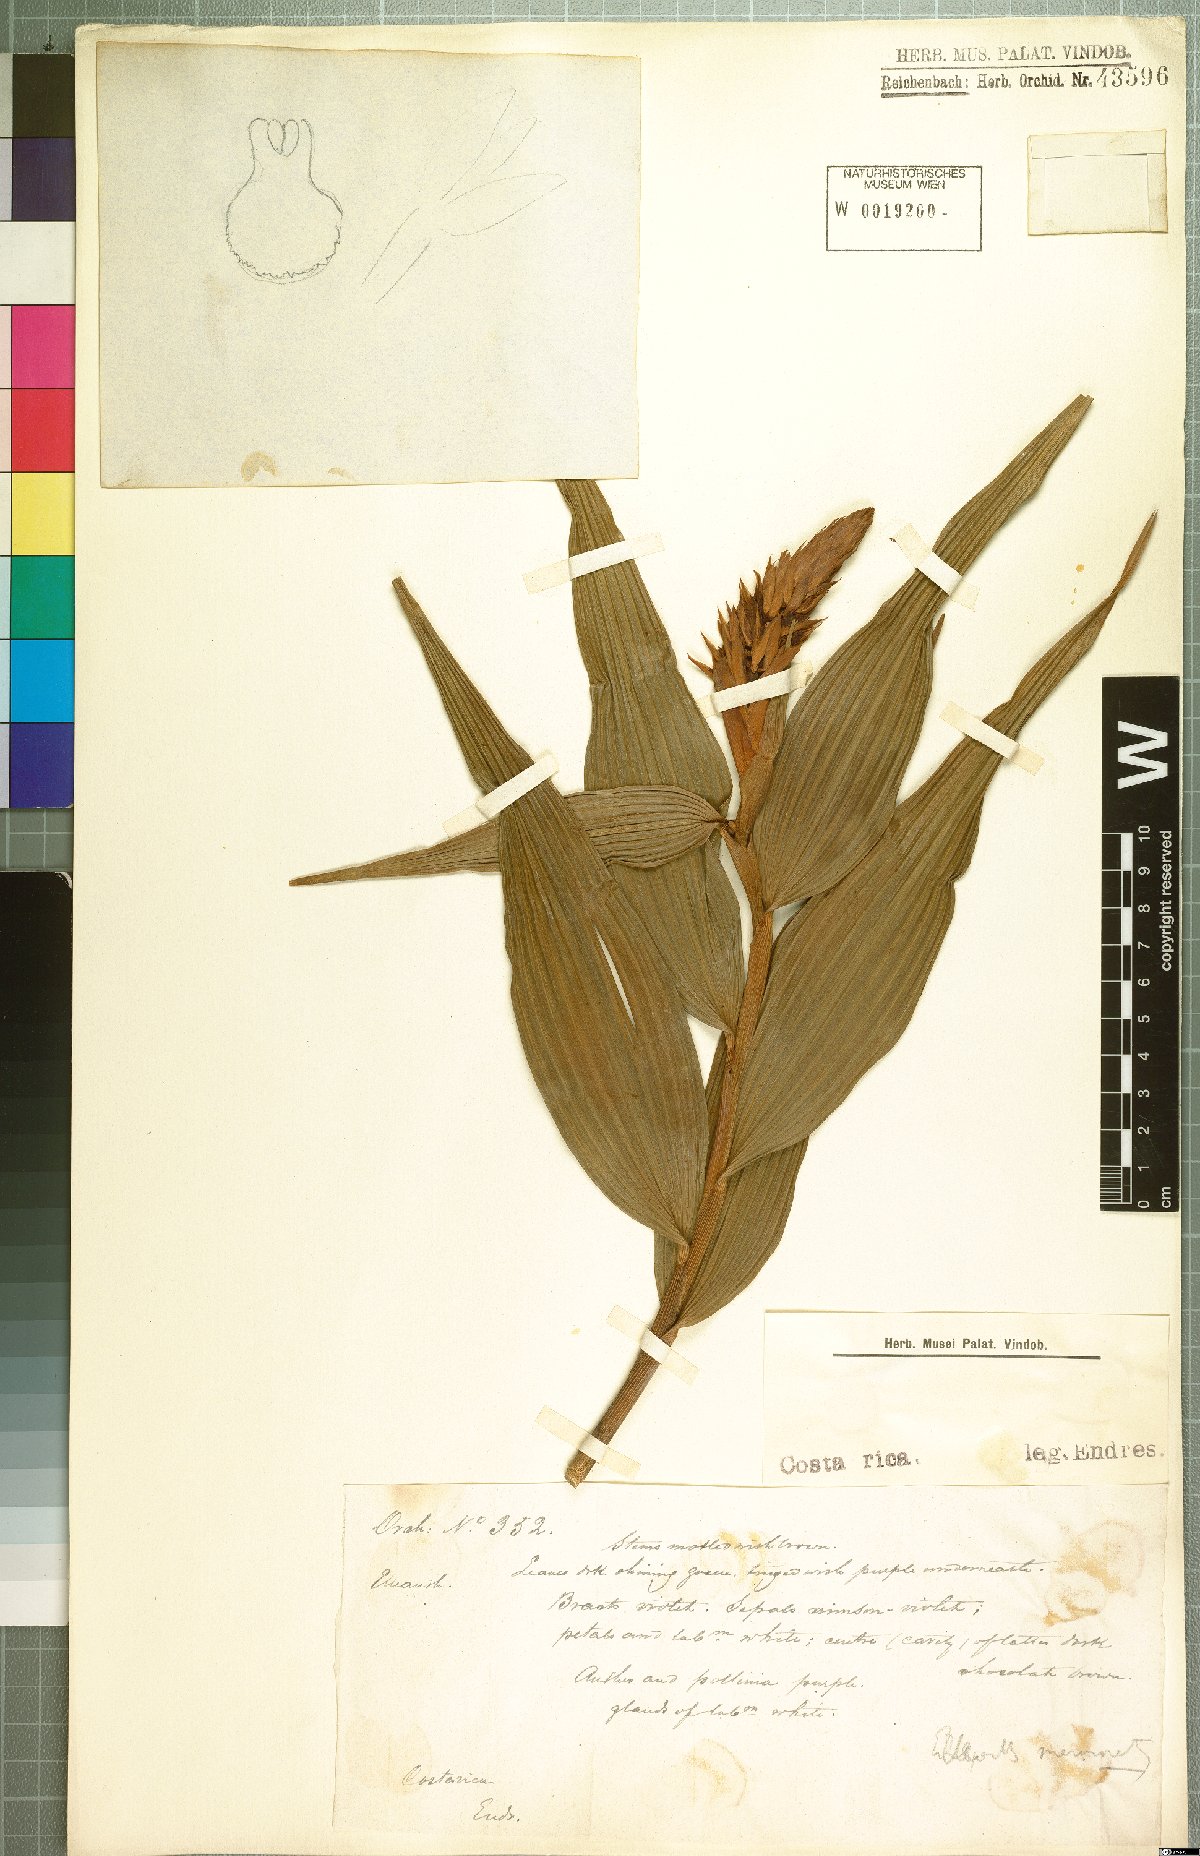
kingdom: Plantae
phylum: Tracheophyta
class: Liliopsida
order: Asparagales
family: Orchidaceae
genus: Elleanthus
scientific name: Elleanthus
